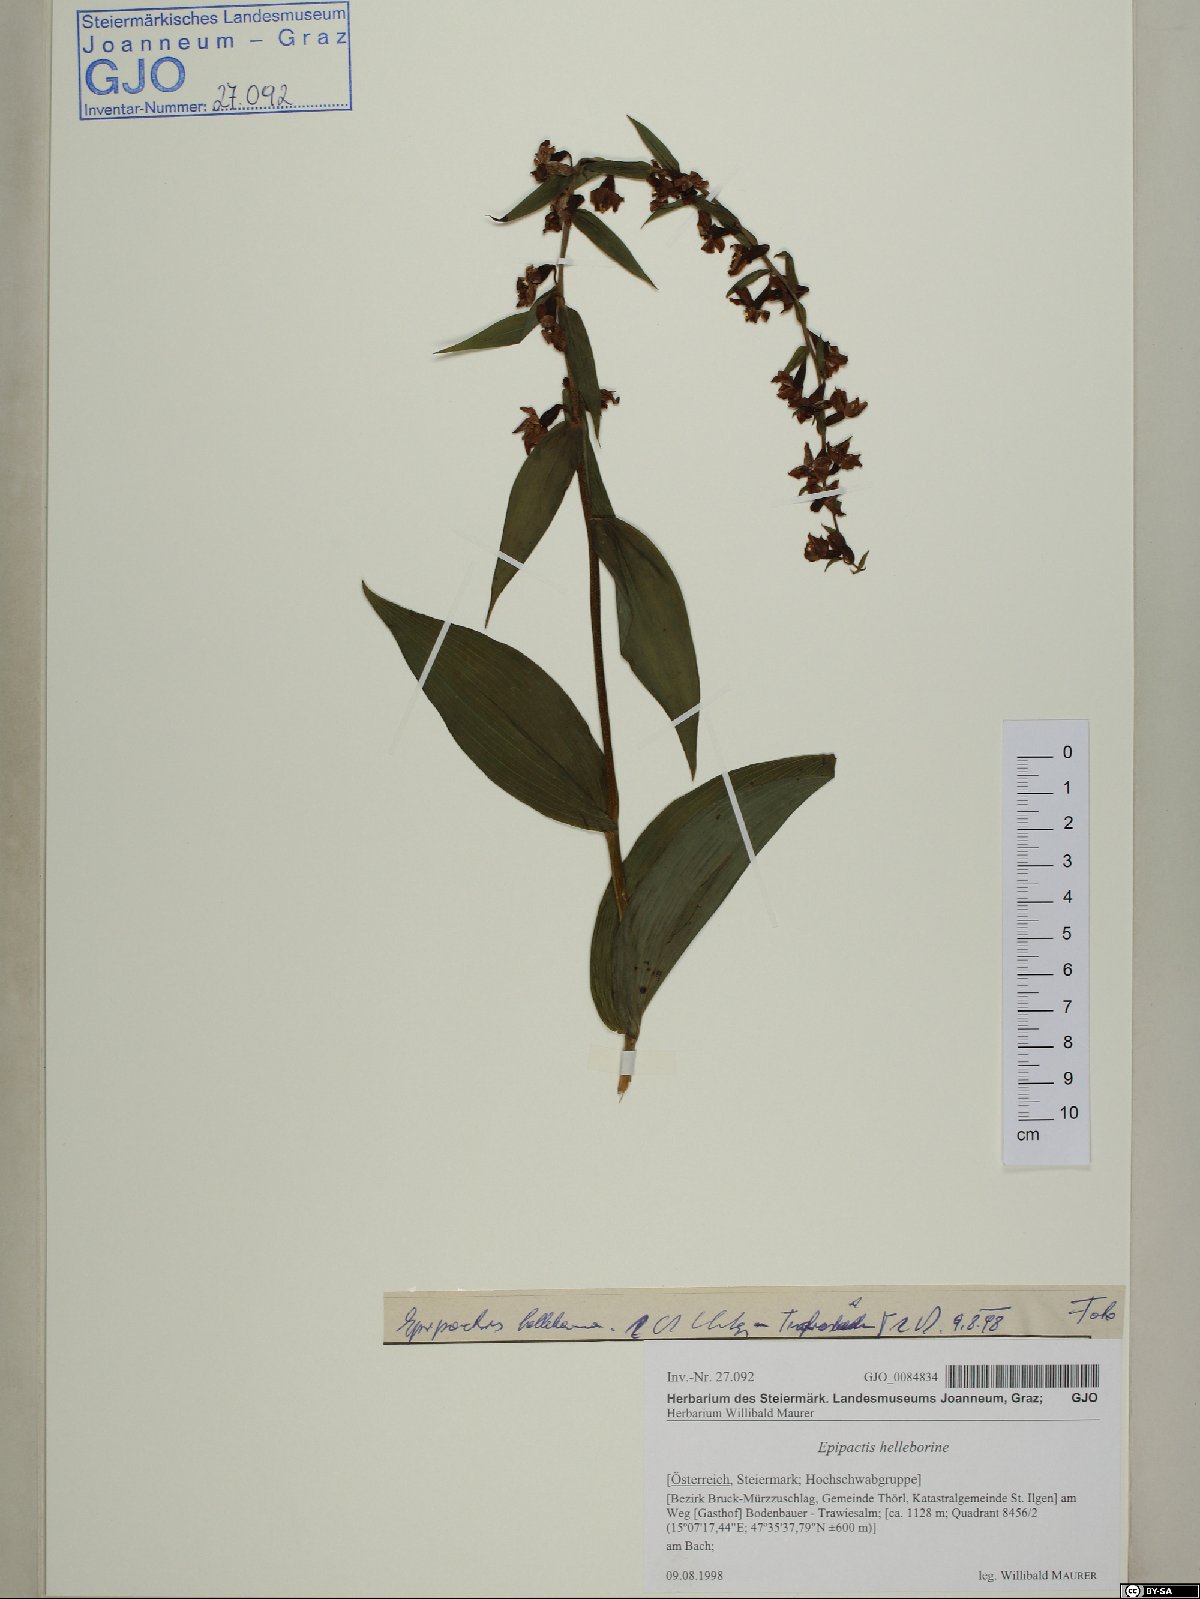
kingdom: Plantae
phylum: Tracheophyta
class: Liliopsida
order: Asparagales
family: Orchidaceae
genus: Epipactis
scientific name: Epipactis helleborine
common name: Broad-leaved helleborine
